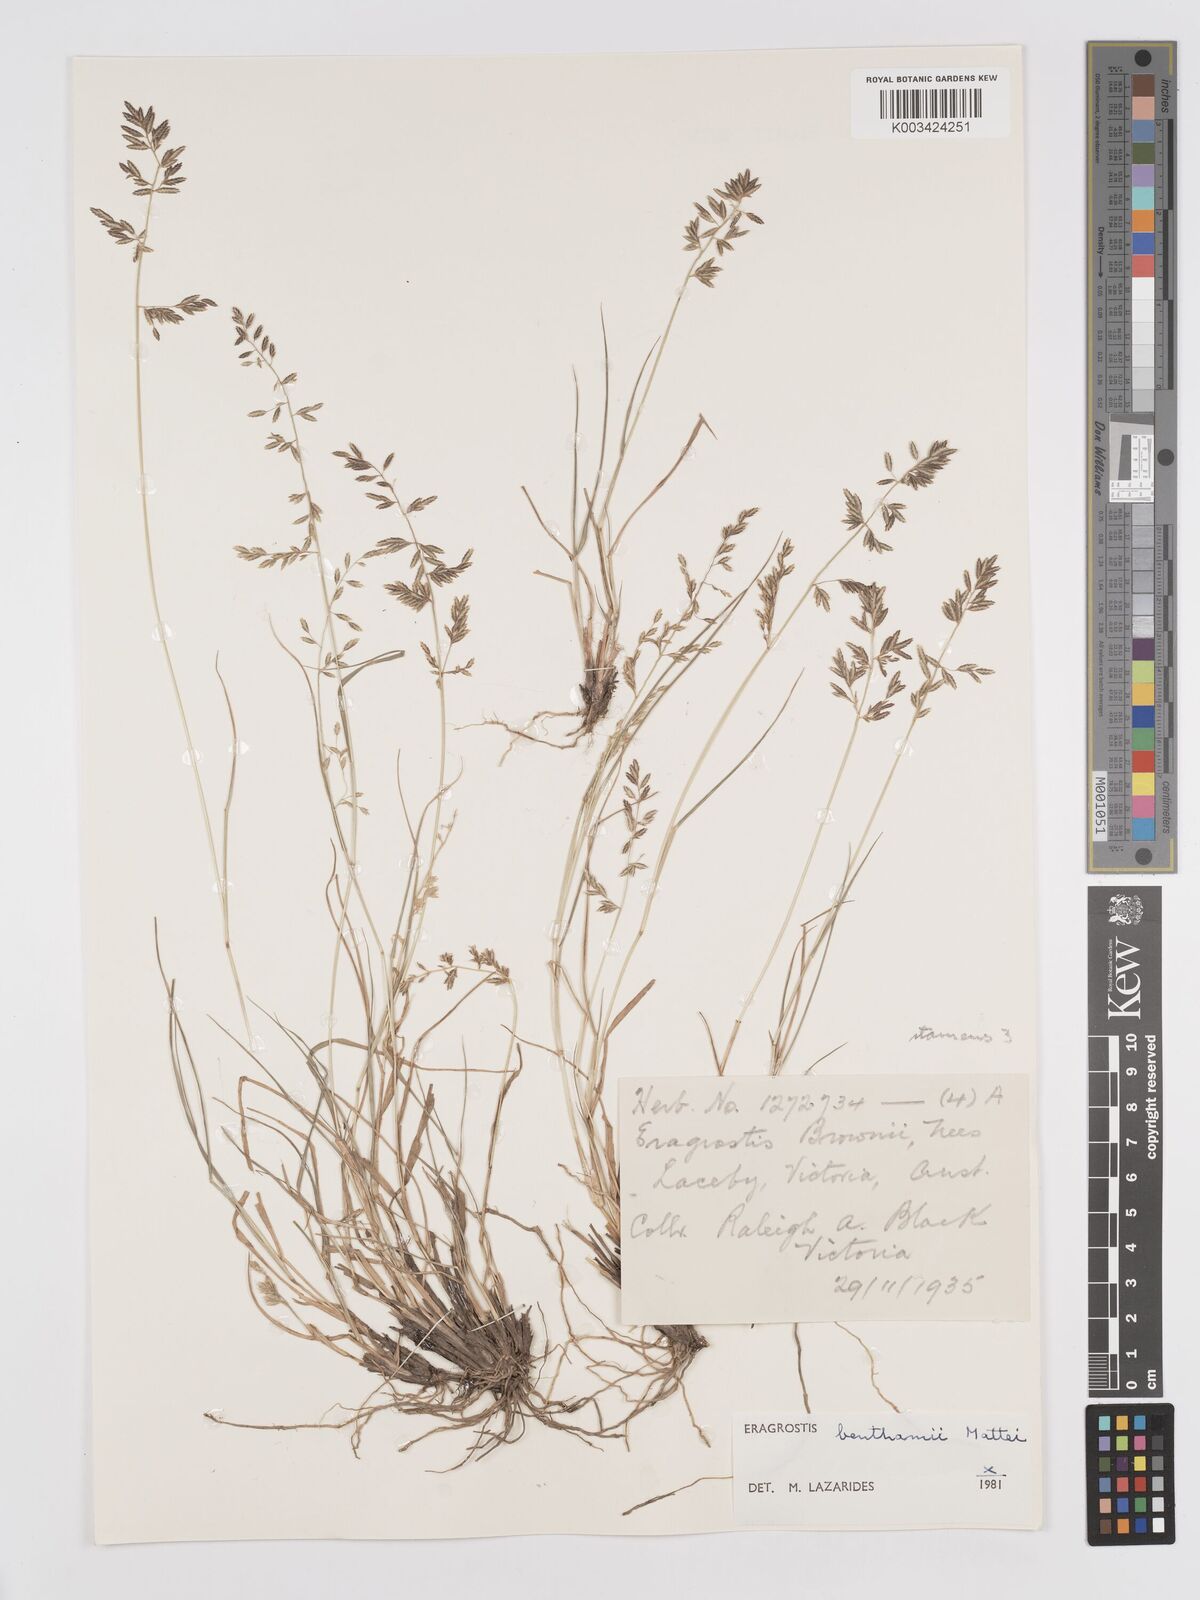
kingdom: Plantae
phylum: Tracheophyta
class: Liliopsida
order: Poales
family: Poaceae
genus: Eragrostis
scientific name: Eragrostis brownii
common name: Lovegrass
